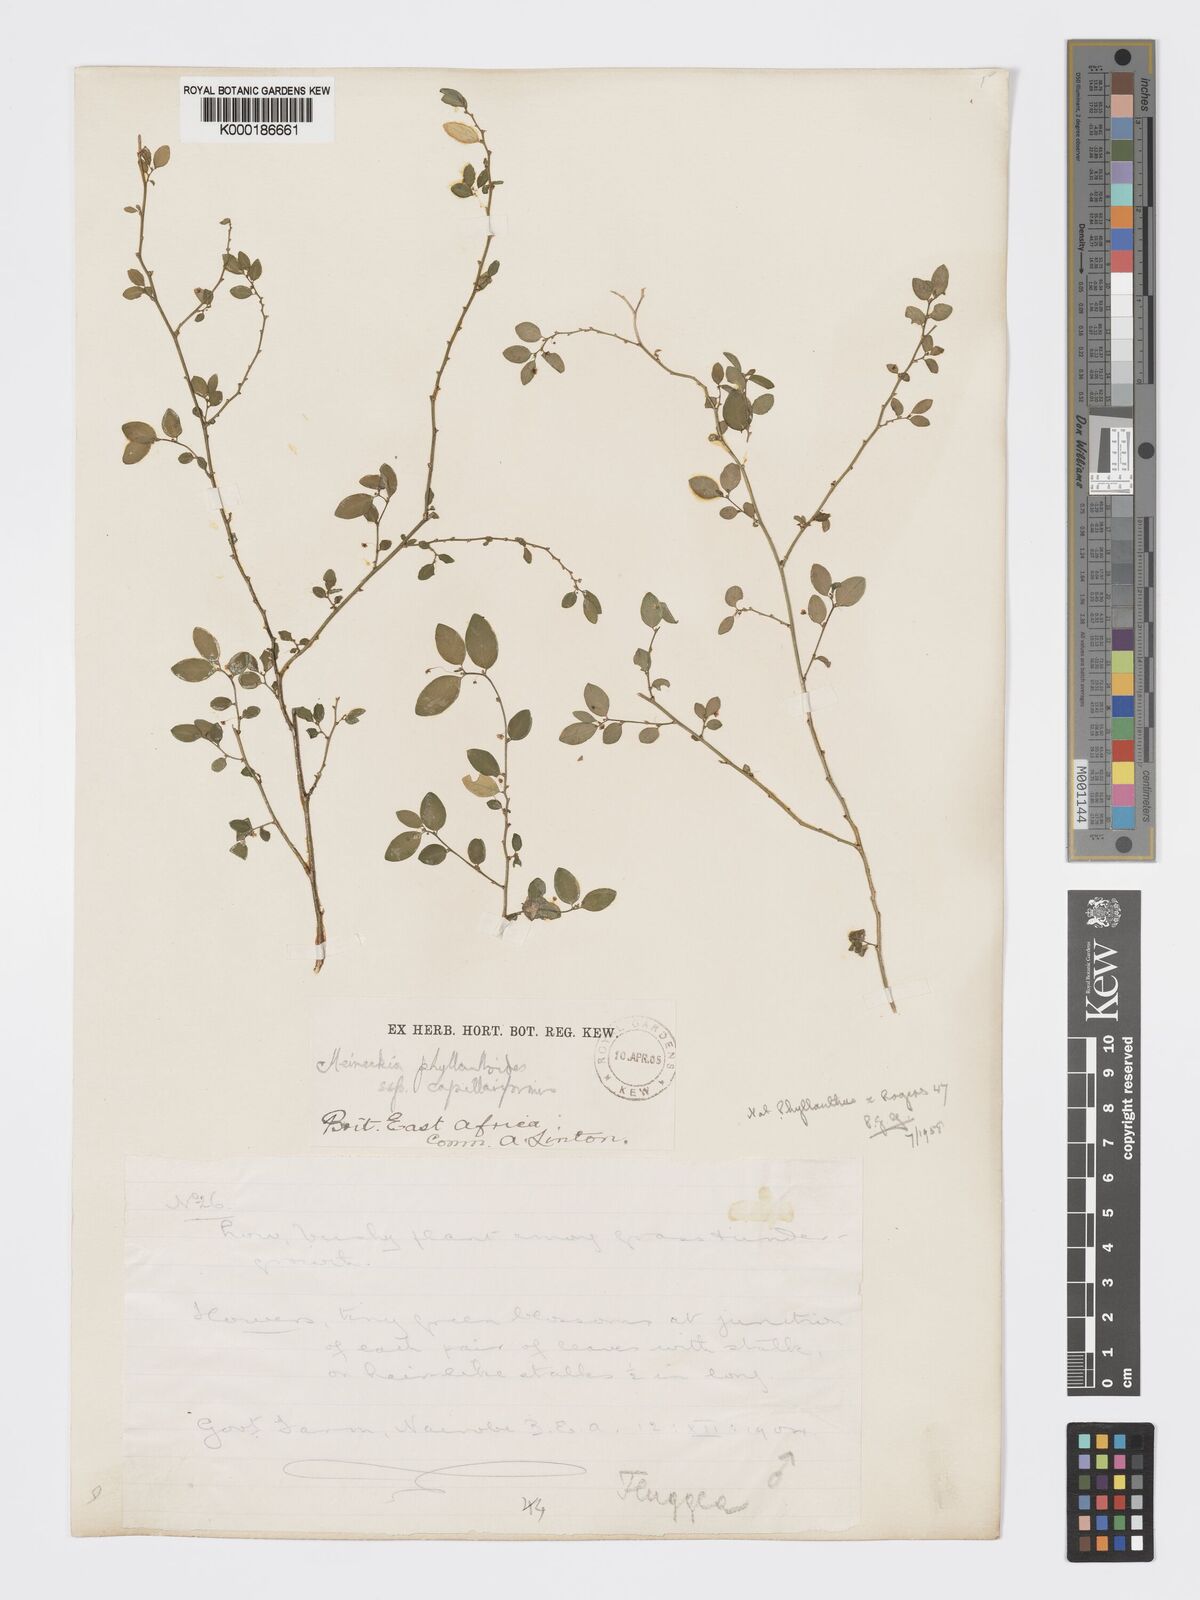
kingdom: Plantae
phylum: Tracheophyta
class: Magnoliopsida
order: Malpighiales
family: Phyllanthaceae
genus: Meineckia
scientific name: Meineckia phyllanthoides
